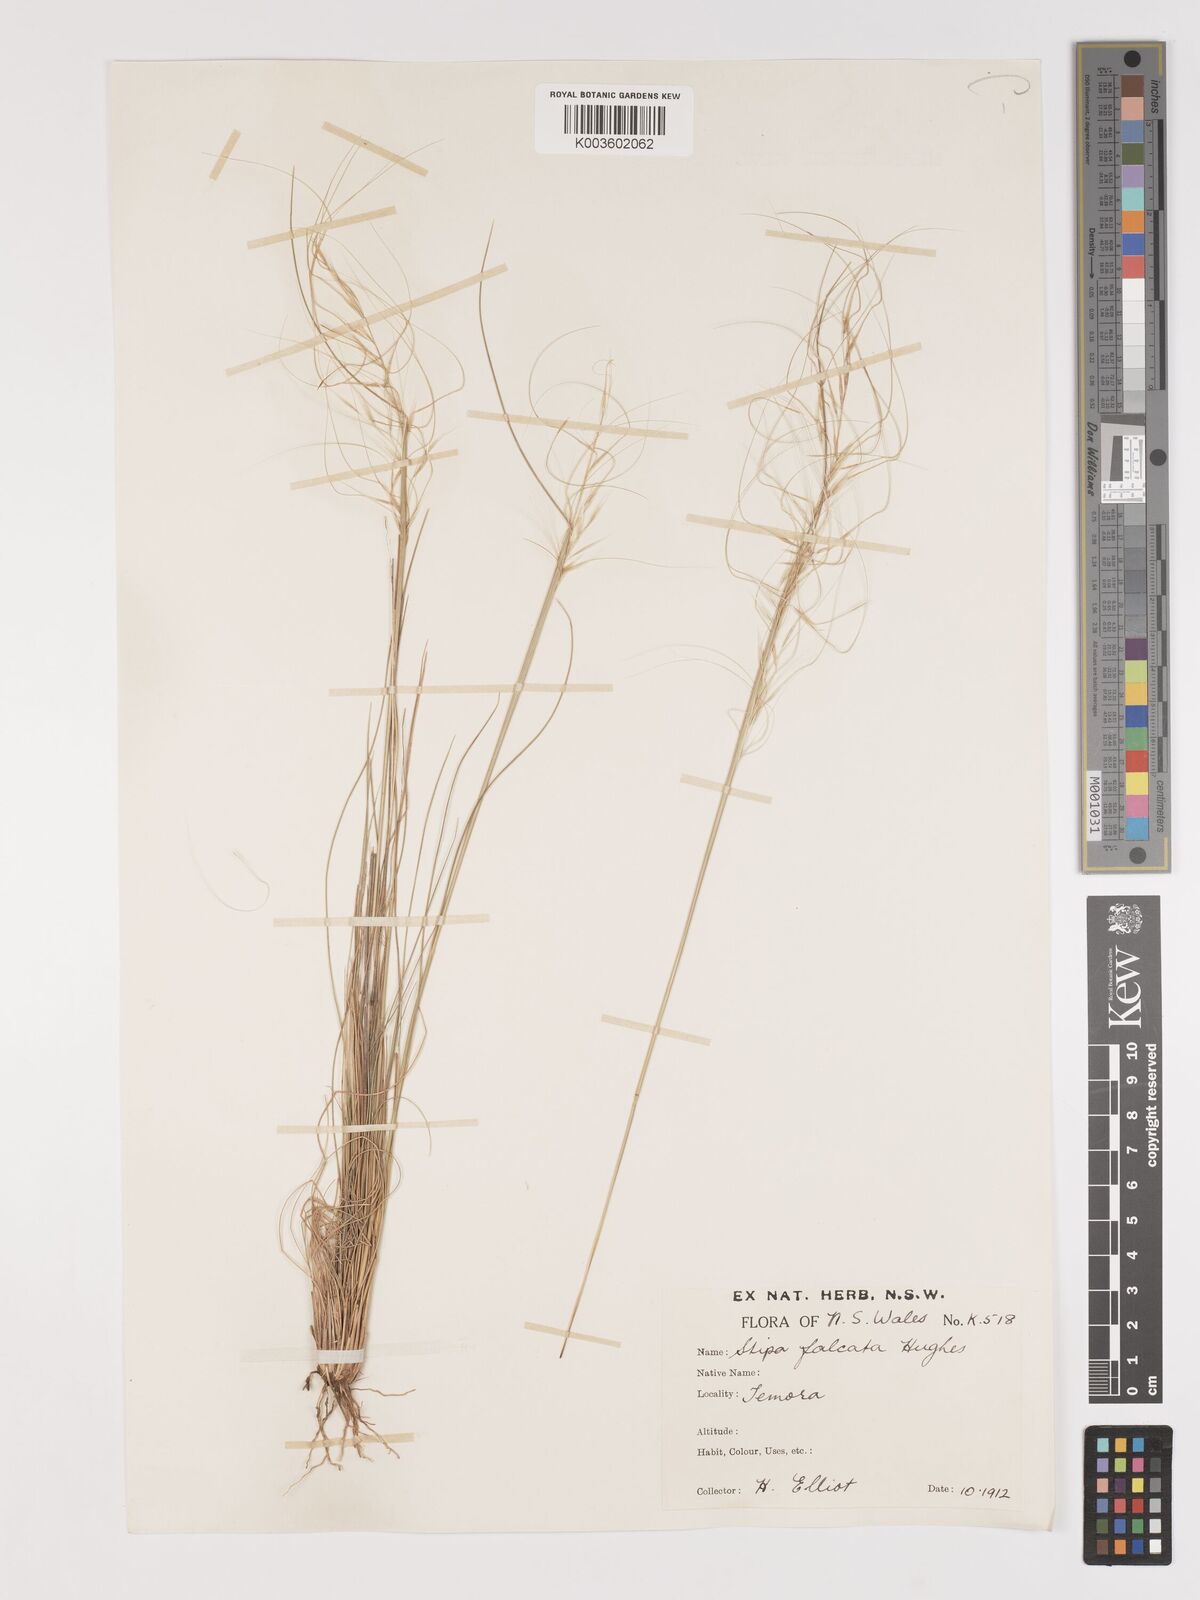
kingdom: Plantae
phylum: Tracheophyta
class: Liliopsida
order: Poales
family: Poaceae
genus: Austrostipa
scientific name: Austrostipa scabra
